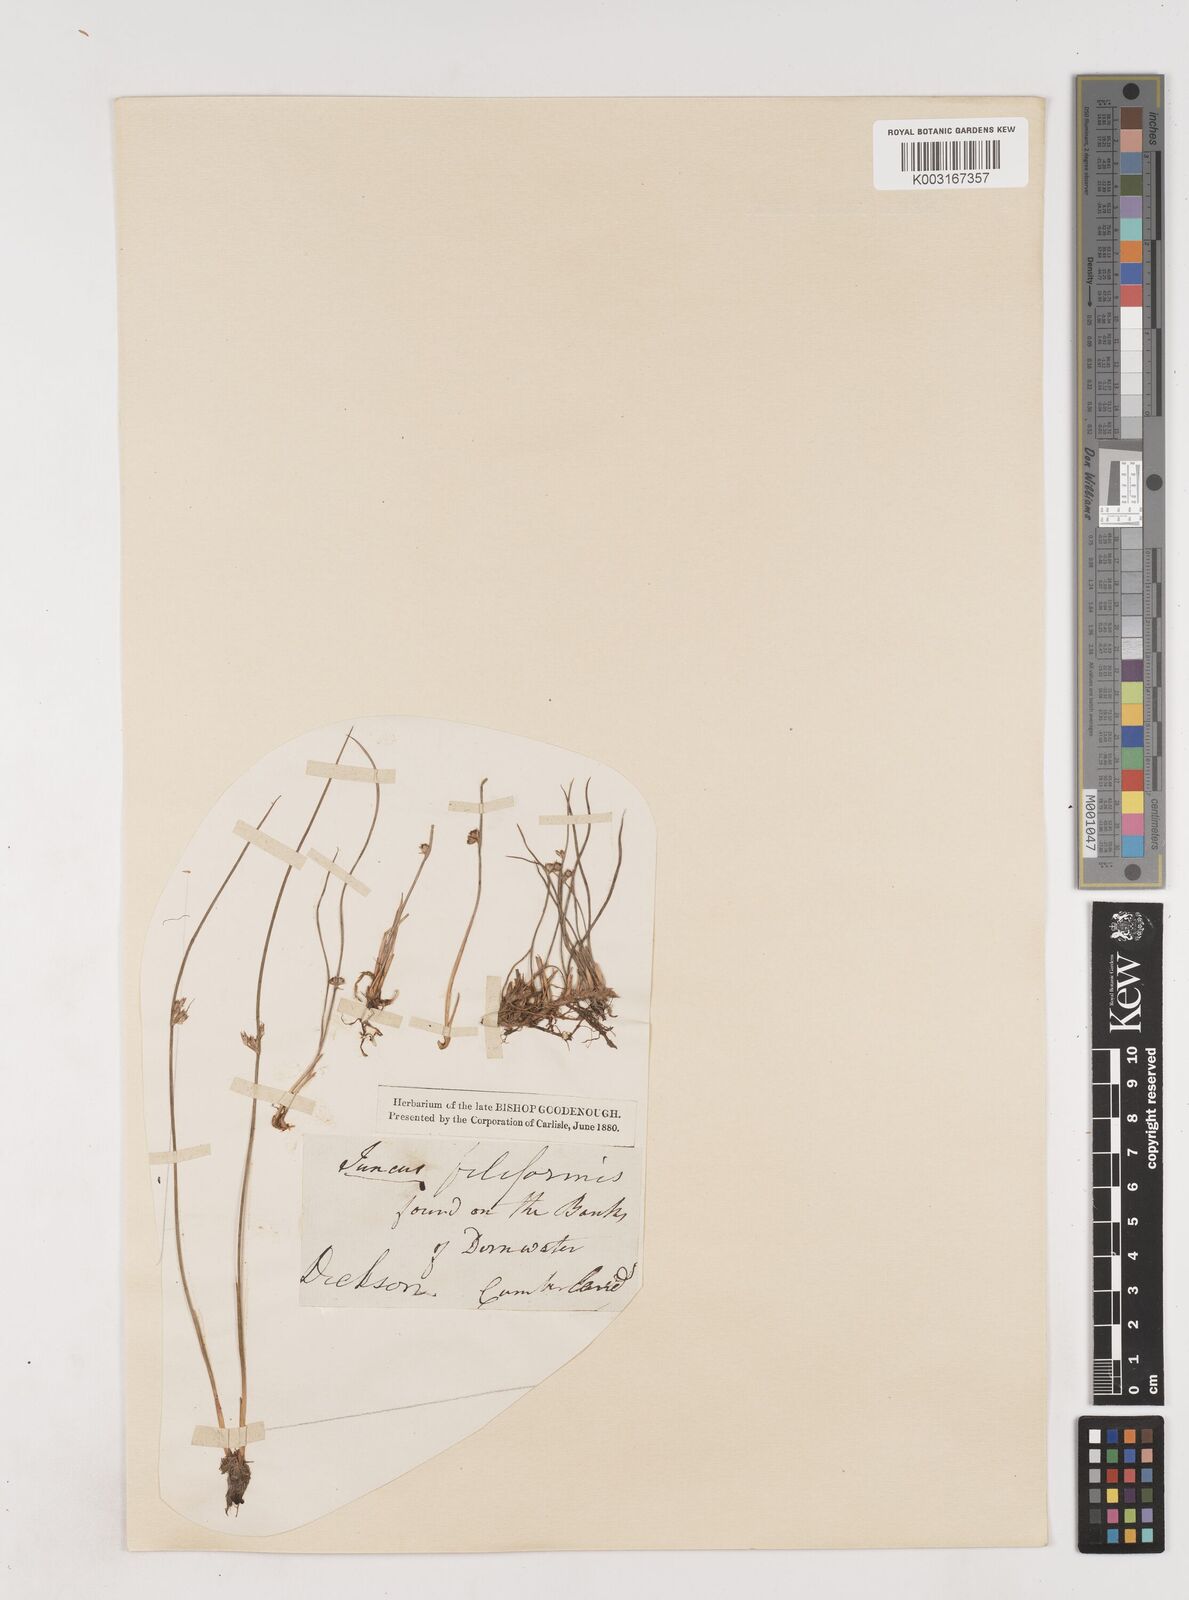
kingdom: Plantae
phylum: Tracheophyta
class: Liliopsida
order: Poales
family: Juncaceae
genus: Juncus
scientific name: Juncus filiformis
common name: Thread rush
